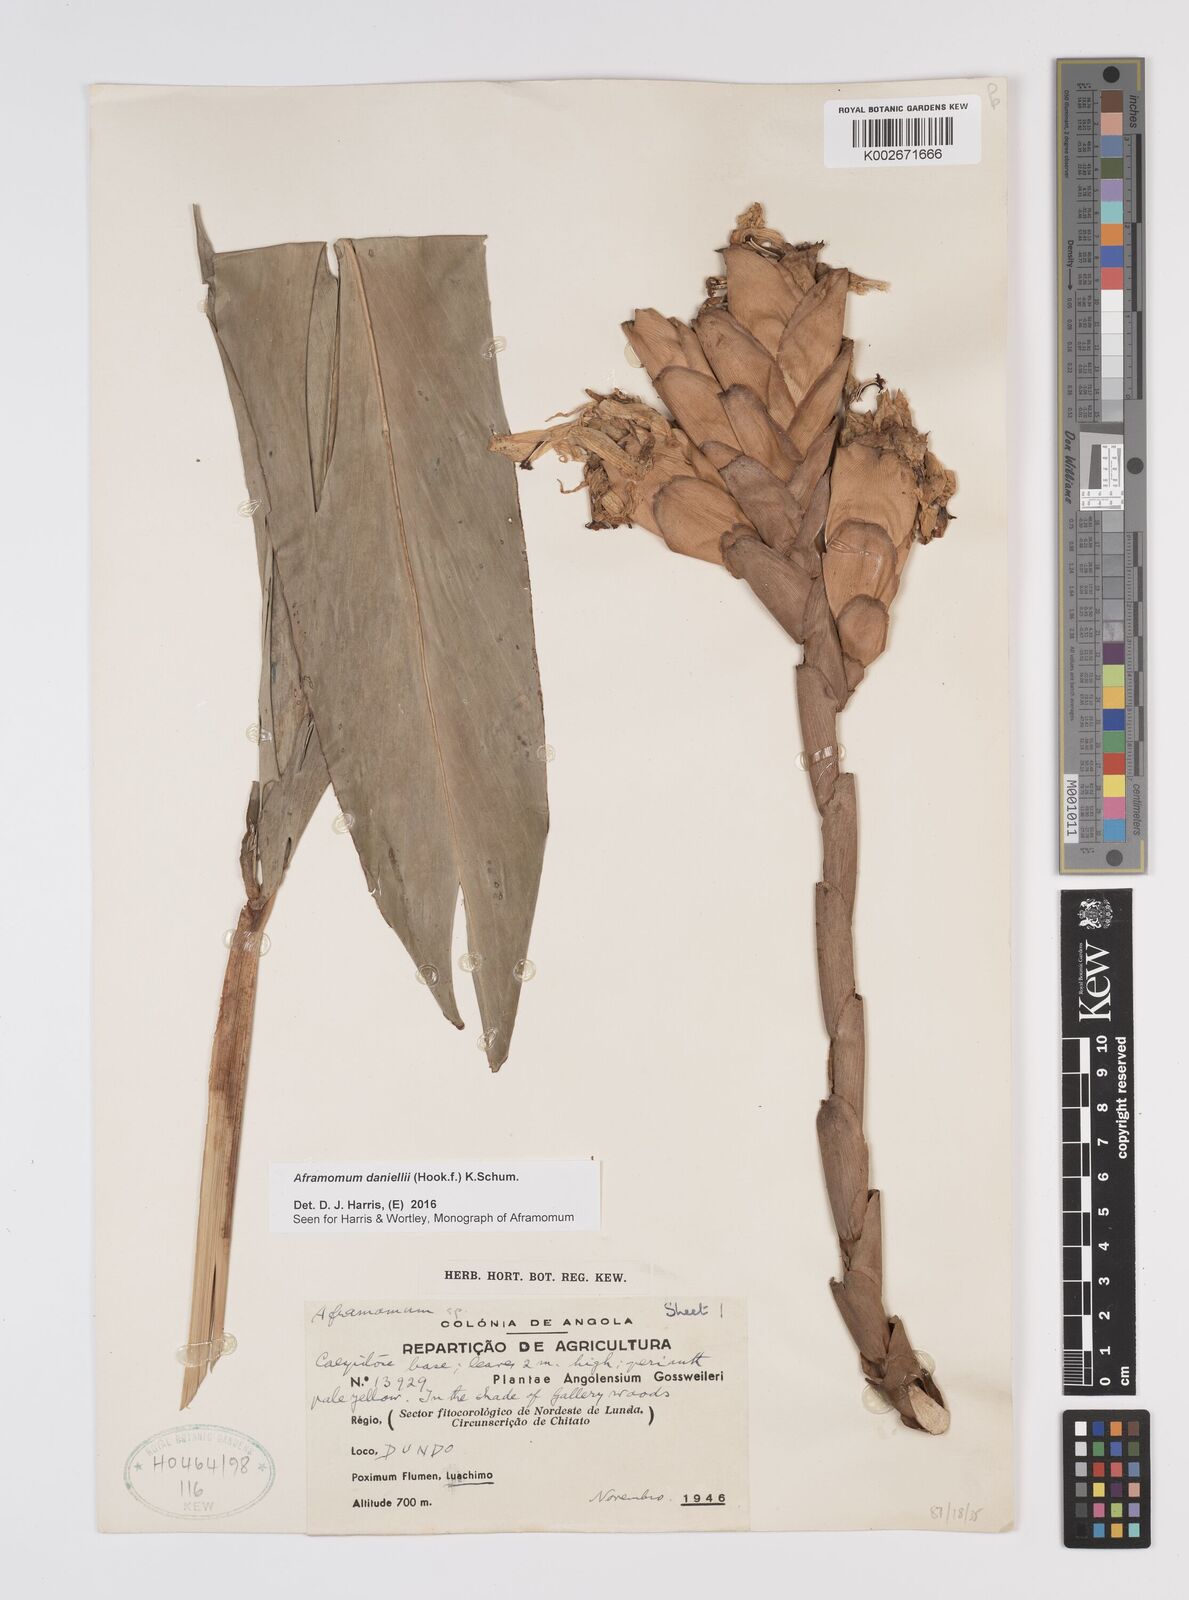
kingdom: Plantae
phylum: Tracheophyta
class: Liliopsida
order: Zingiberales
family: Zingiberaceae
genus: Aframomum
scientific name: Aframomum
